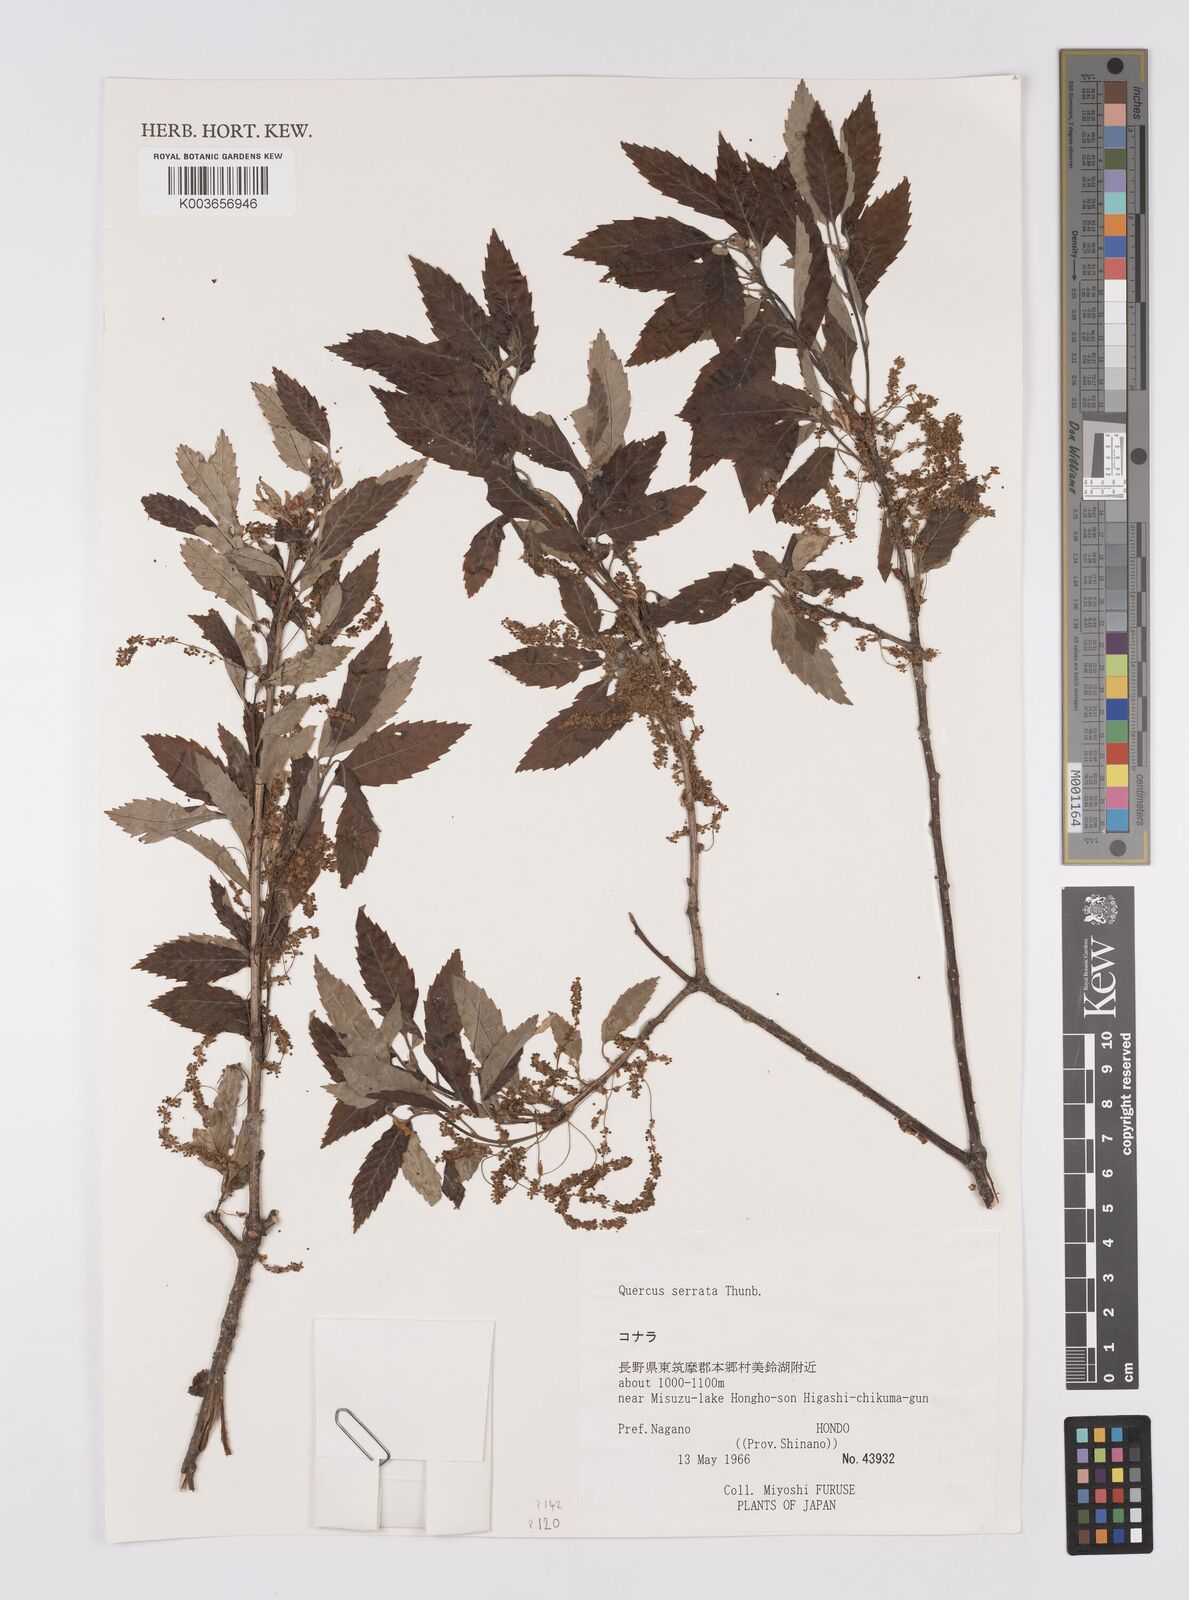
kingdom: Plantae
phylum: Tracheophyta
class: Magnoliopsida
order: Fagales
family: Fagaceae
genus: Quercus
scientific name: Quercus serrata
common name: Bao li
